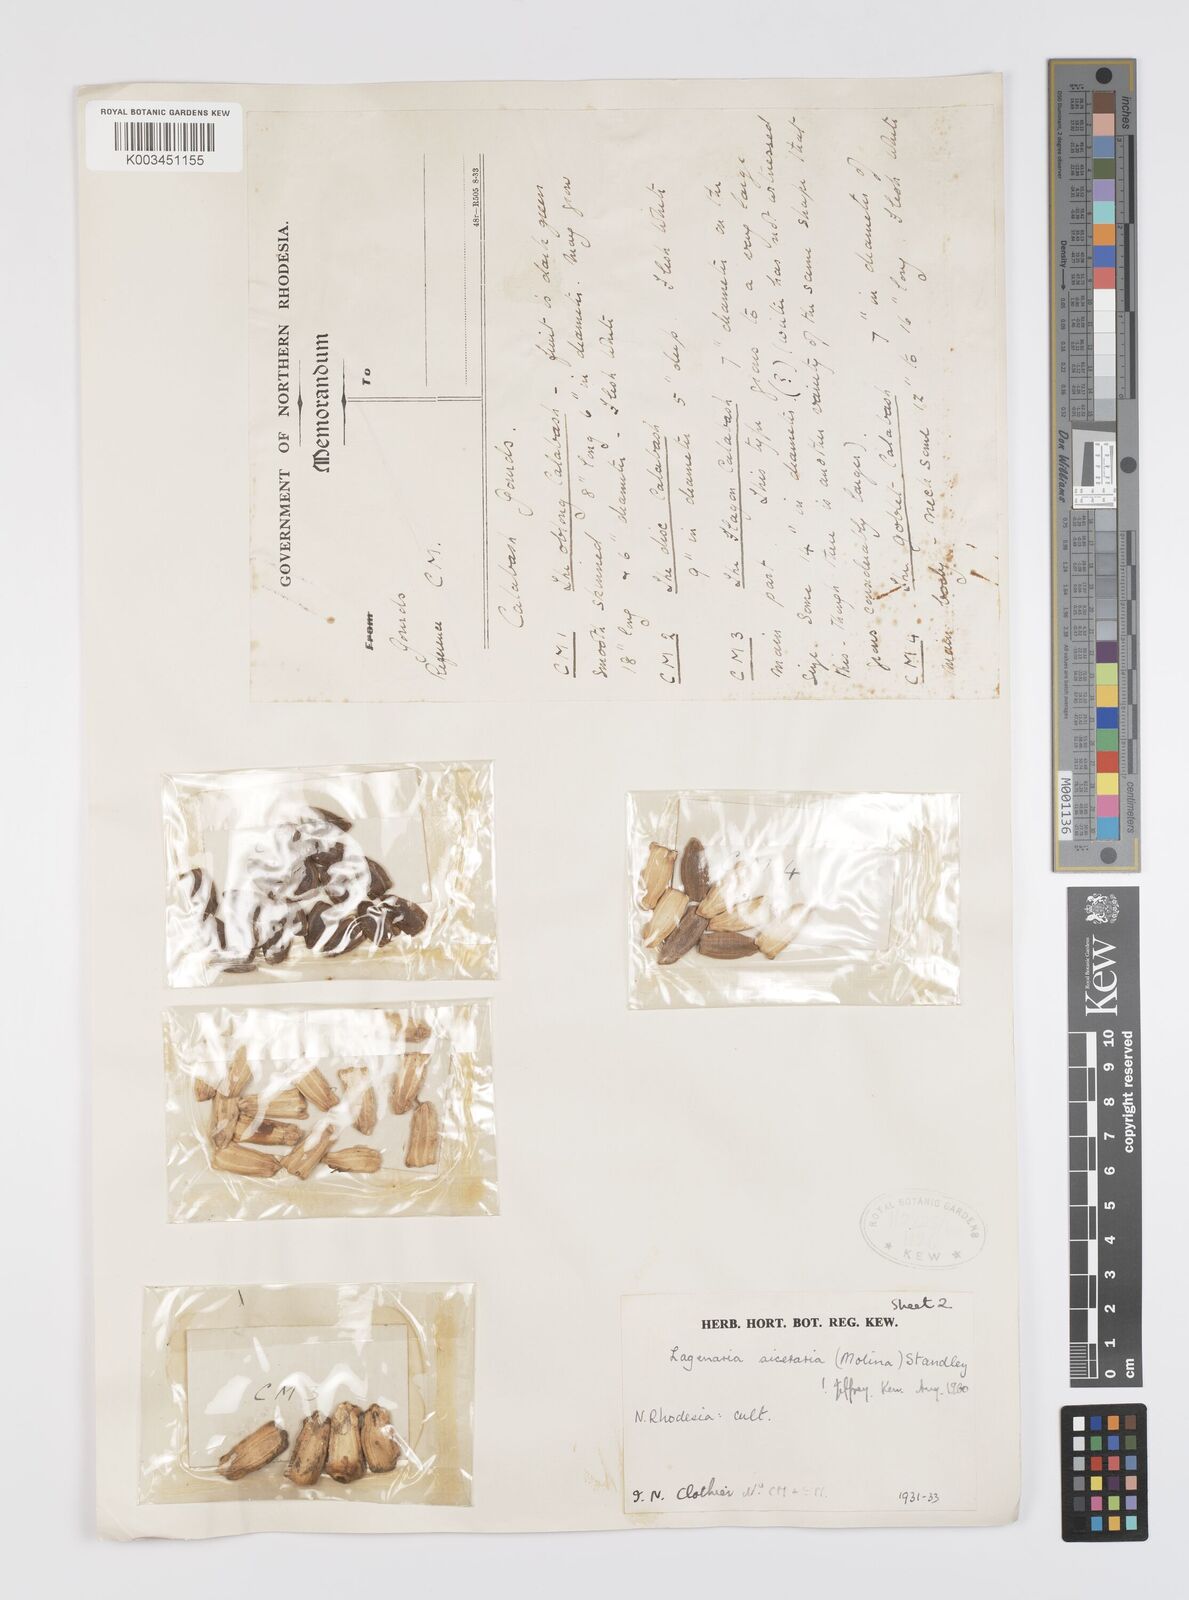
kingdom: Plantae
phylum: Tracheophyta
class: Magnoliopsida
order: Cucurbitales
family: Cucurbitaceae
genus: Lagenaria
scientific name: Lagenaria siceraria
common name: Bottle gourd
